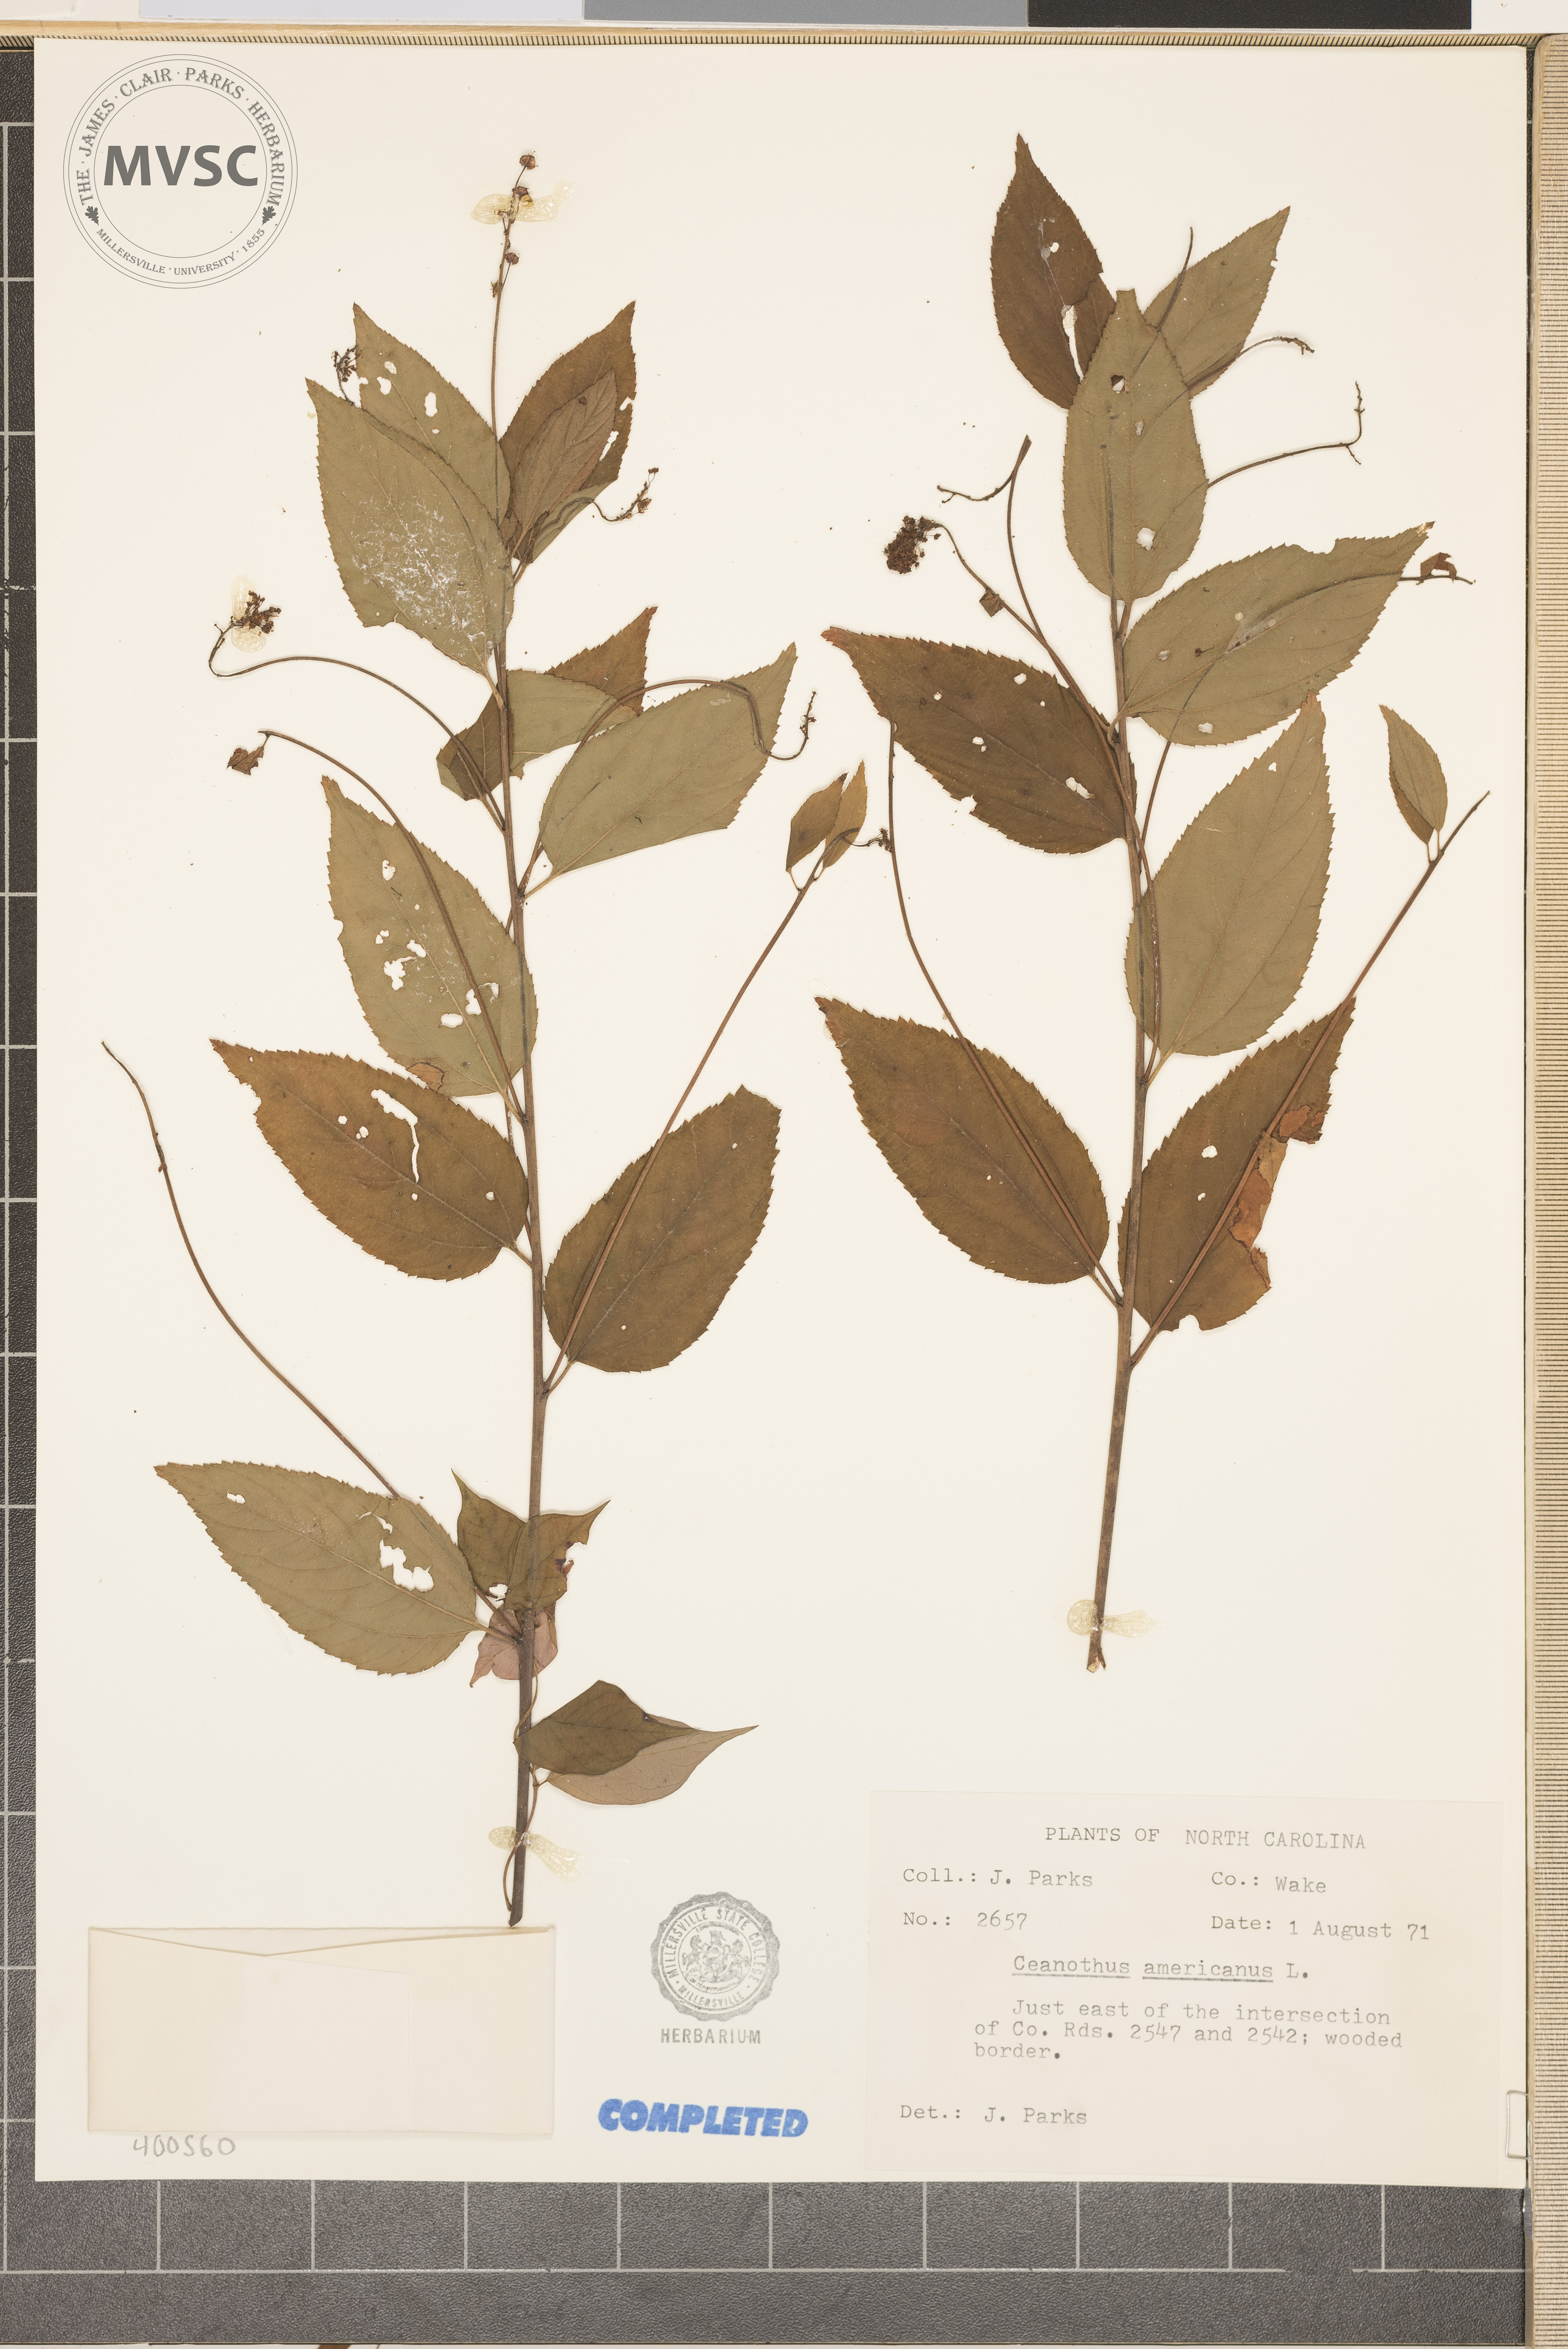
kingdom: Plantae
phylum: Tracheophyta
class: Magnoliopsida
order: Rosales
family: Rhamnaceae
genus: Ceanothus
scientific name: Ceanothus americanus
